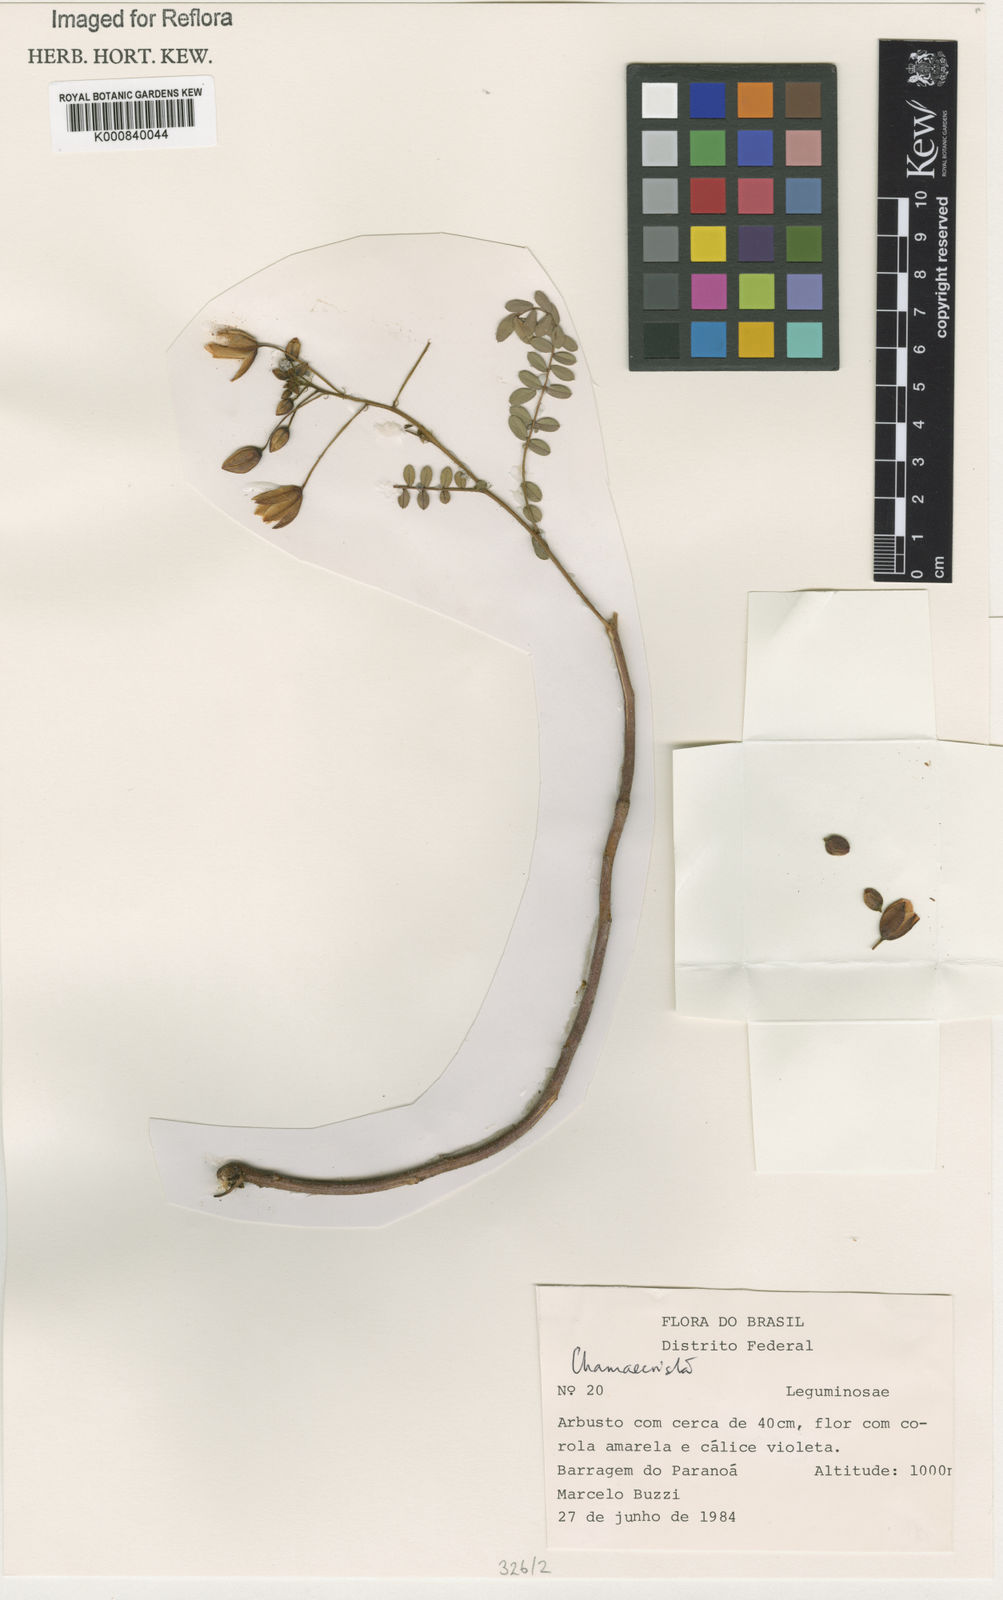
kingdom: Plantae
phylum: Tracheophyta
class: Magnoliopsida
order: Fabales
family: Fabaceae
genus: Chamaecrista
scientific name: Chamaecrista
